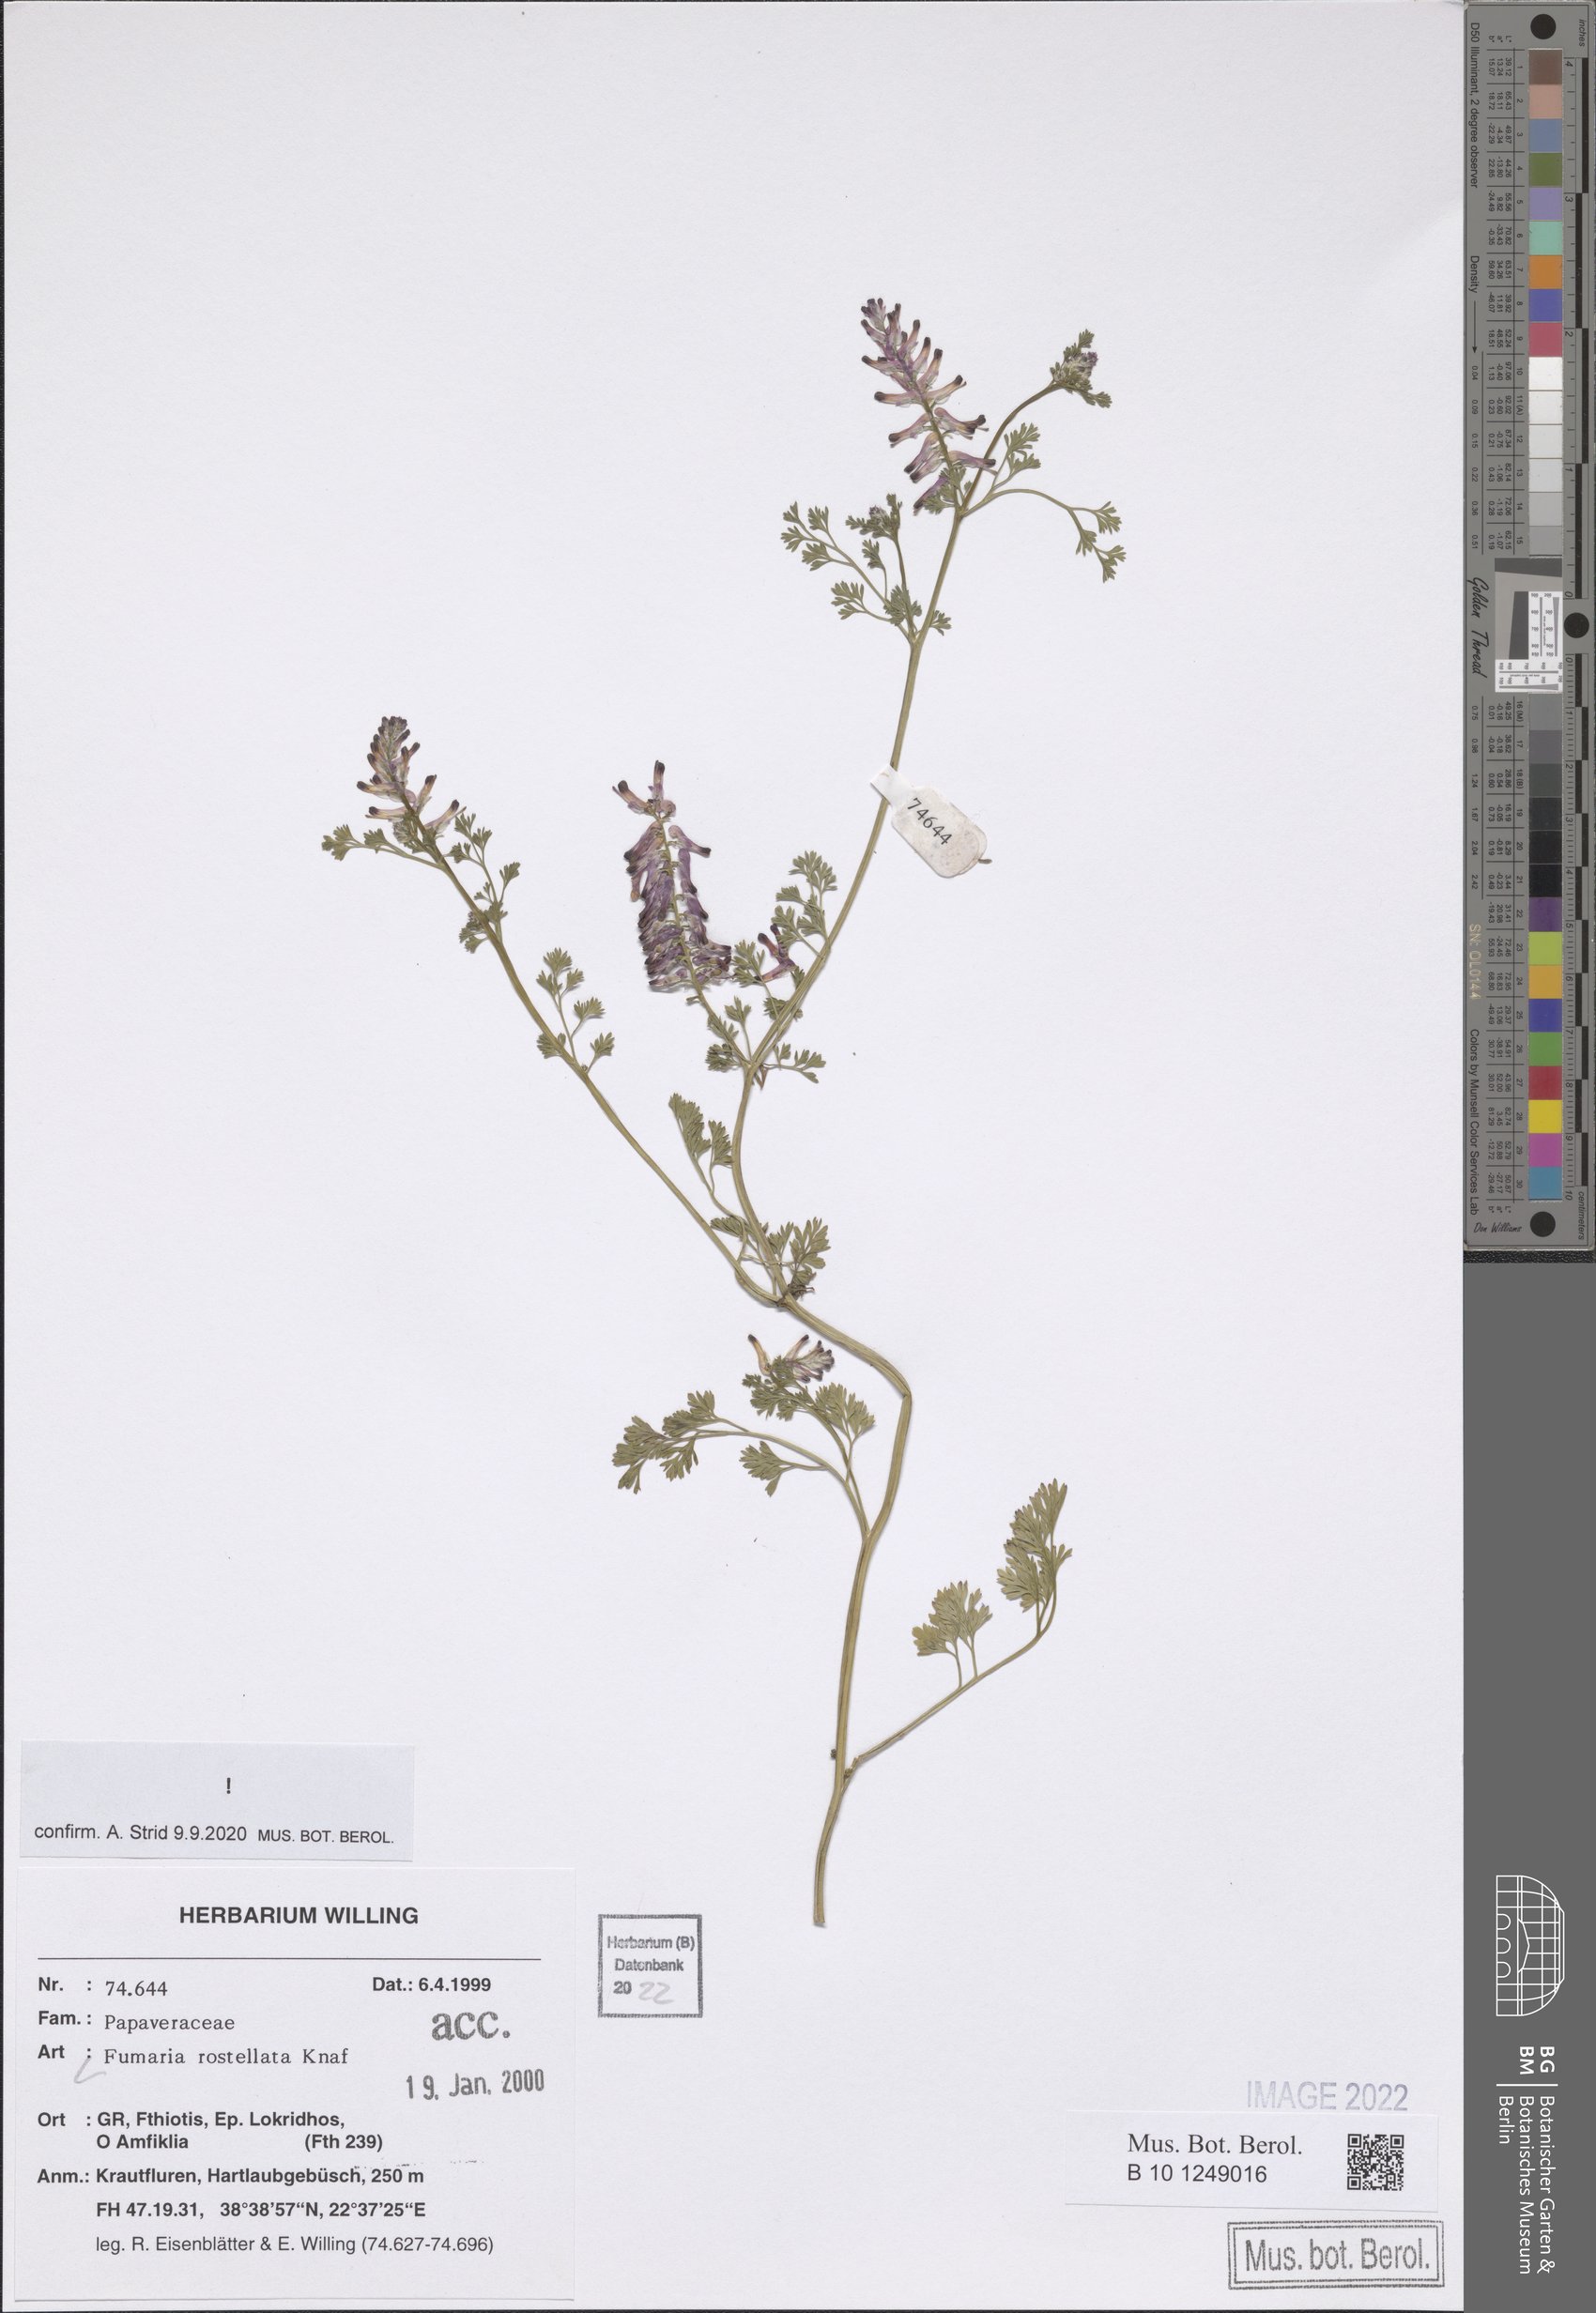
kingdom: Plantae
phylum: Tracheophyta
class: Magnoliopsida
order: Ranunculales
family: Papaveraceae
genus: Fumaria
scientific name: Fumaria rostellata
